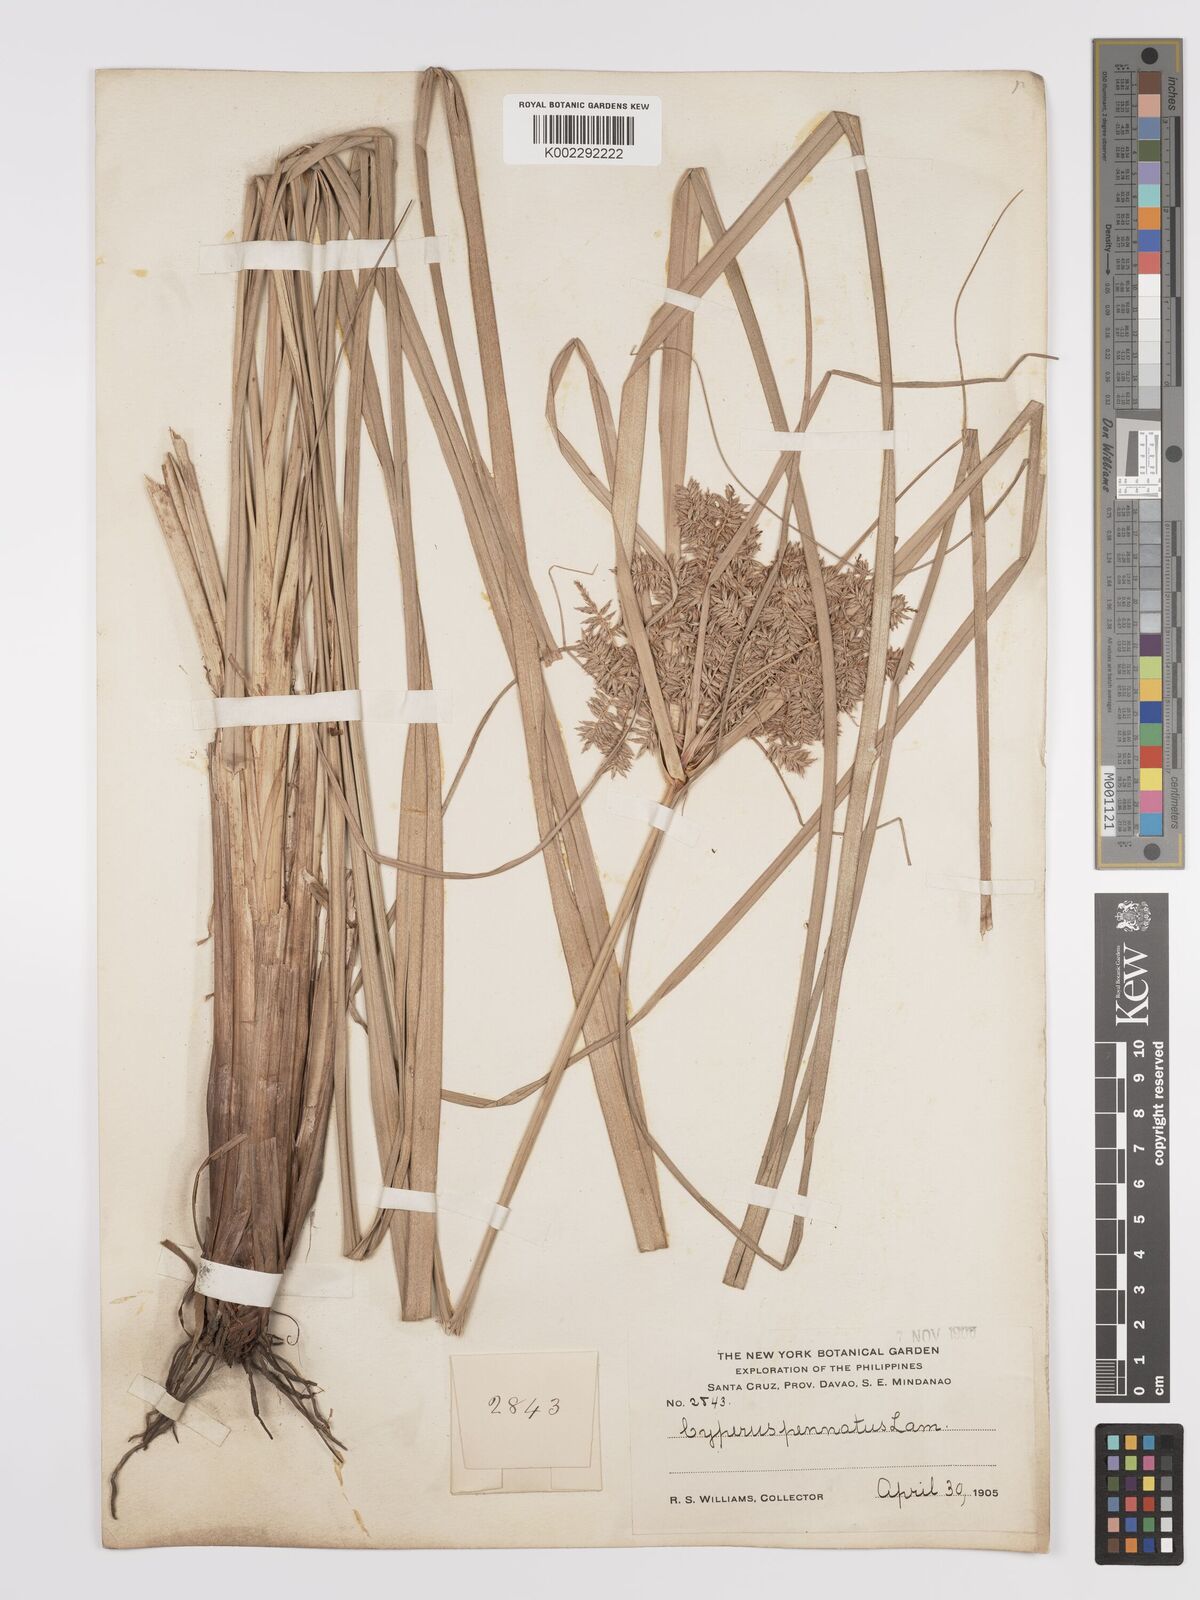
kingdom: Plantae
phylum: Tracheophyta
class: Liliopsida
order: Poales
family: Cyperaceae
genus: Cyperus
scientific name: Cyperus javanicus
